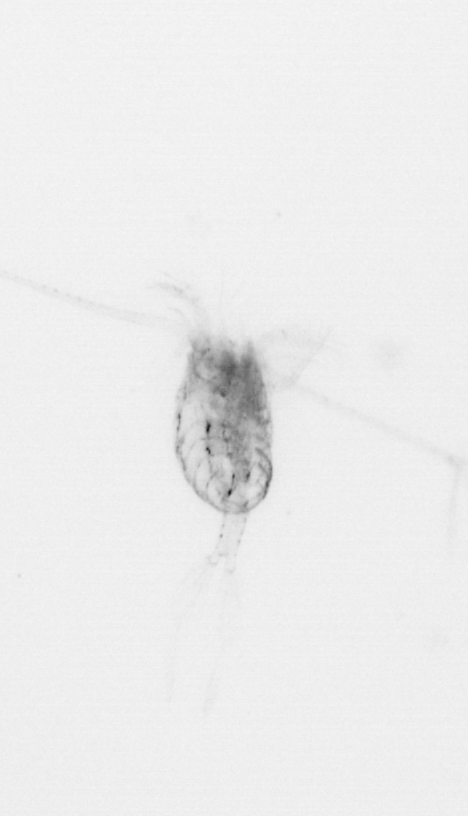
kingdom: Animalia
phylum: Arthropoda
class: Copepoda
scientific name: Copepoda
